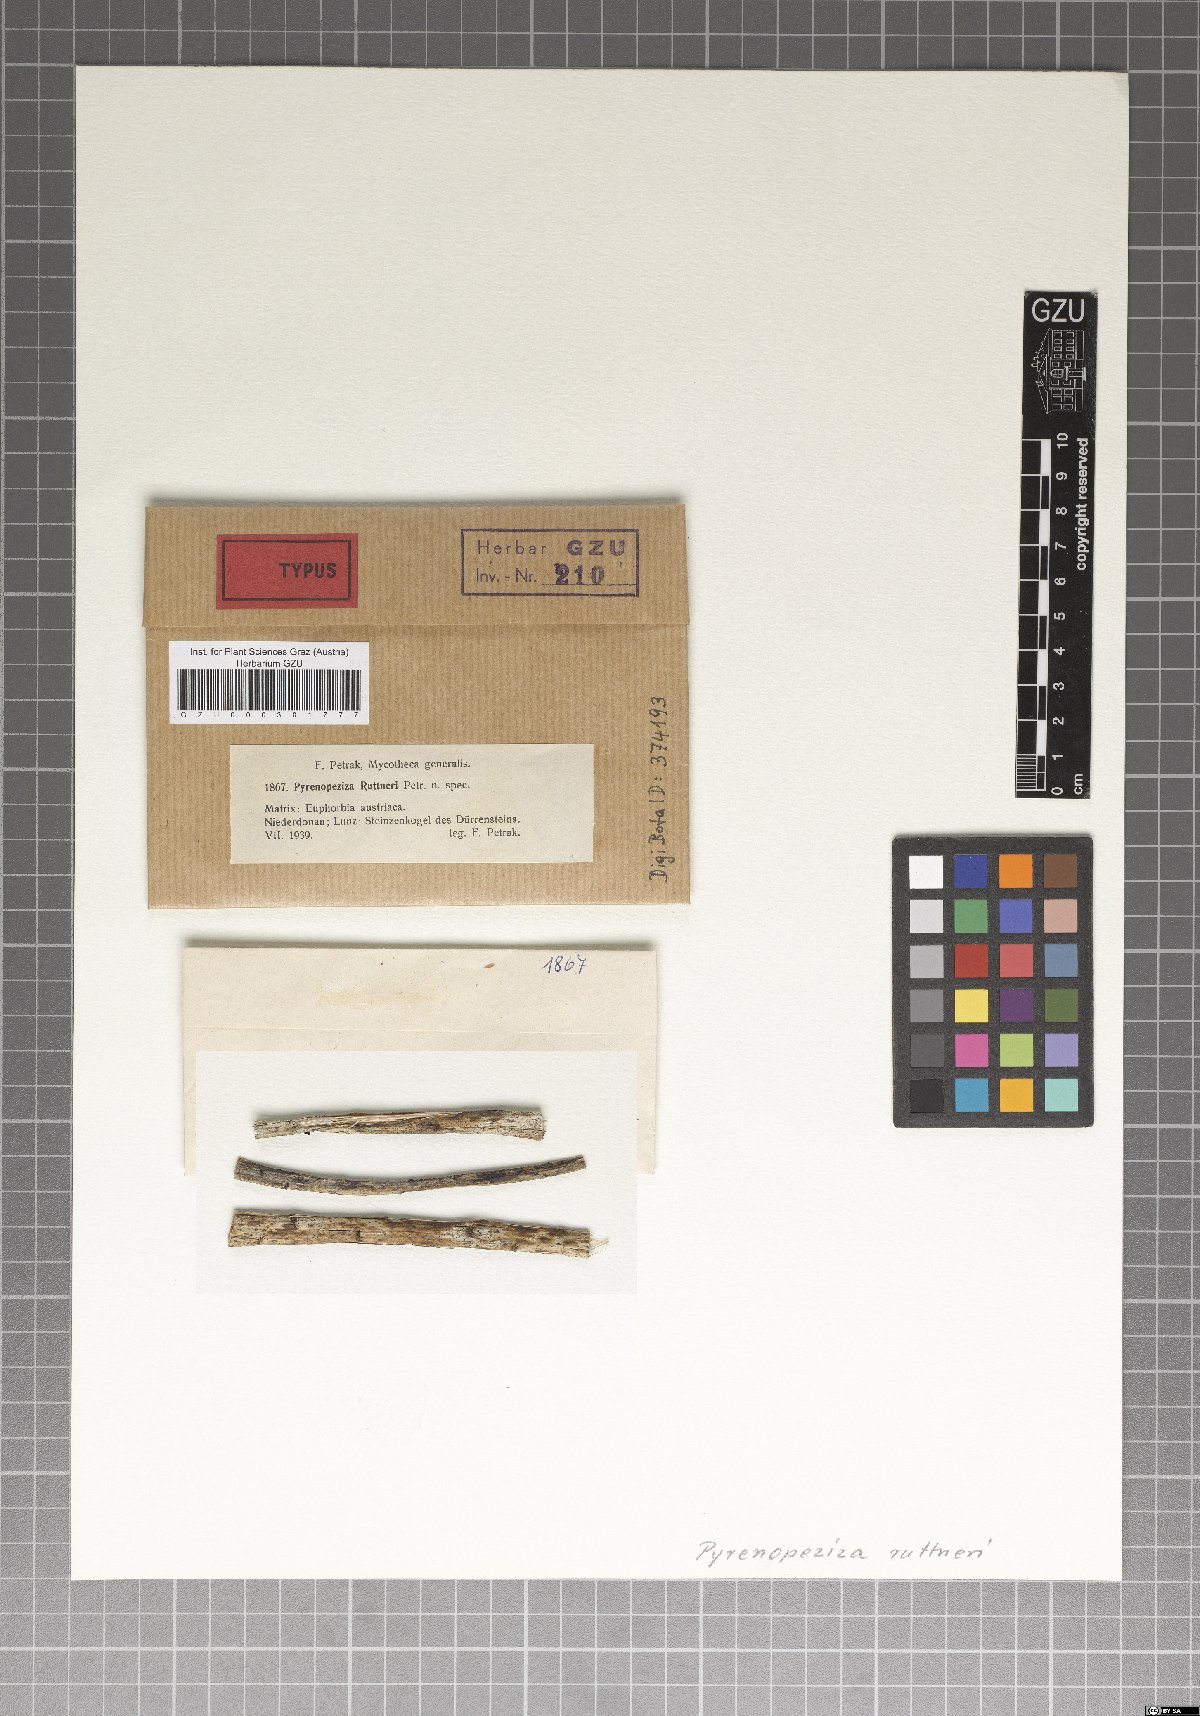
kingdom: Fungi
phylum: Ascomycota
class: Leotiomycetes
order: Helotiales
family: Ploettnerulaceae
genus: Pyrenopeziza
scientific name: Pyrenopeziza ruttneri
